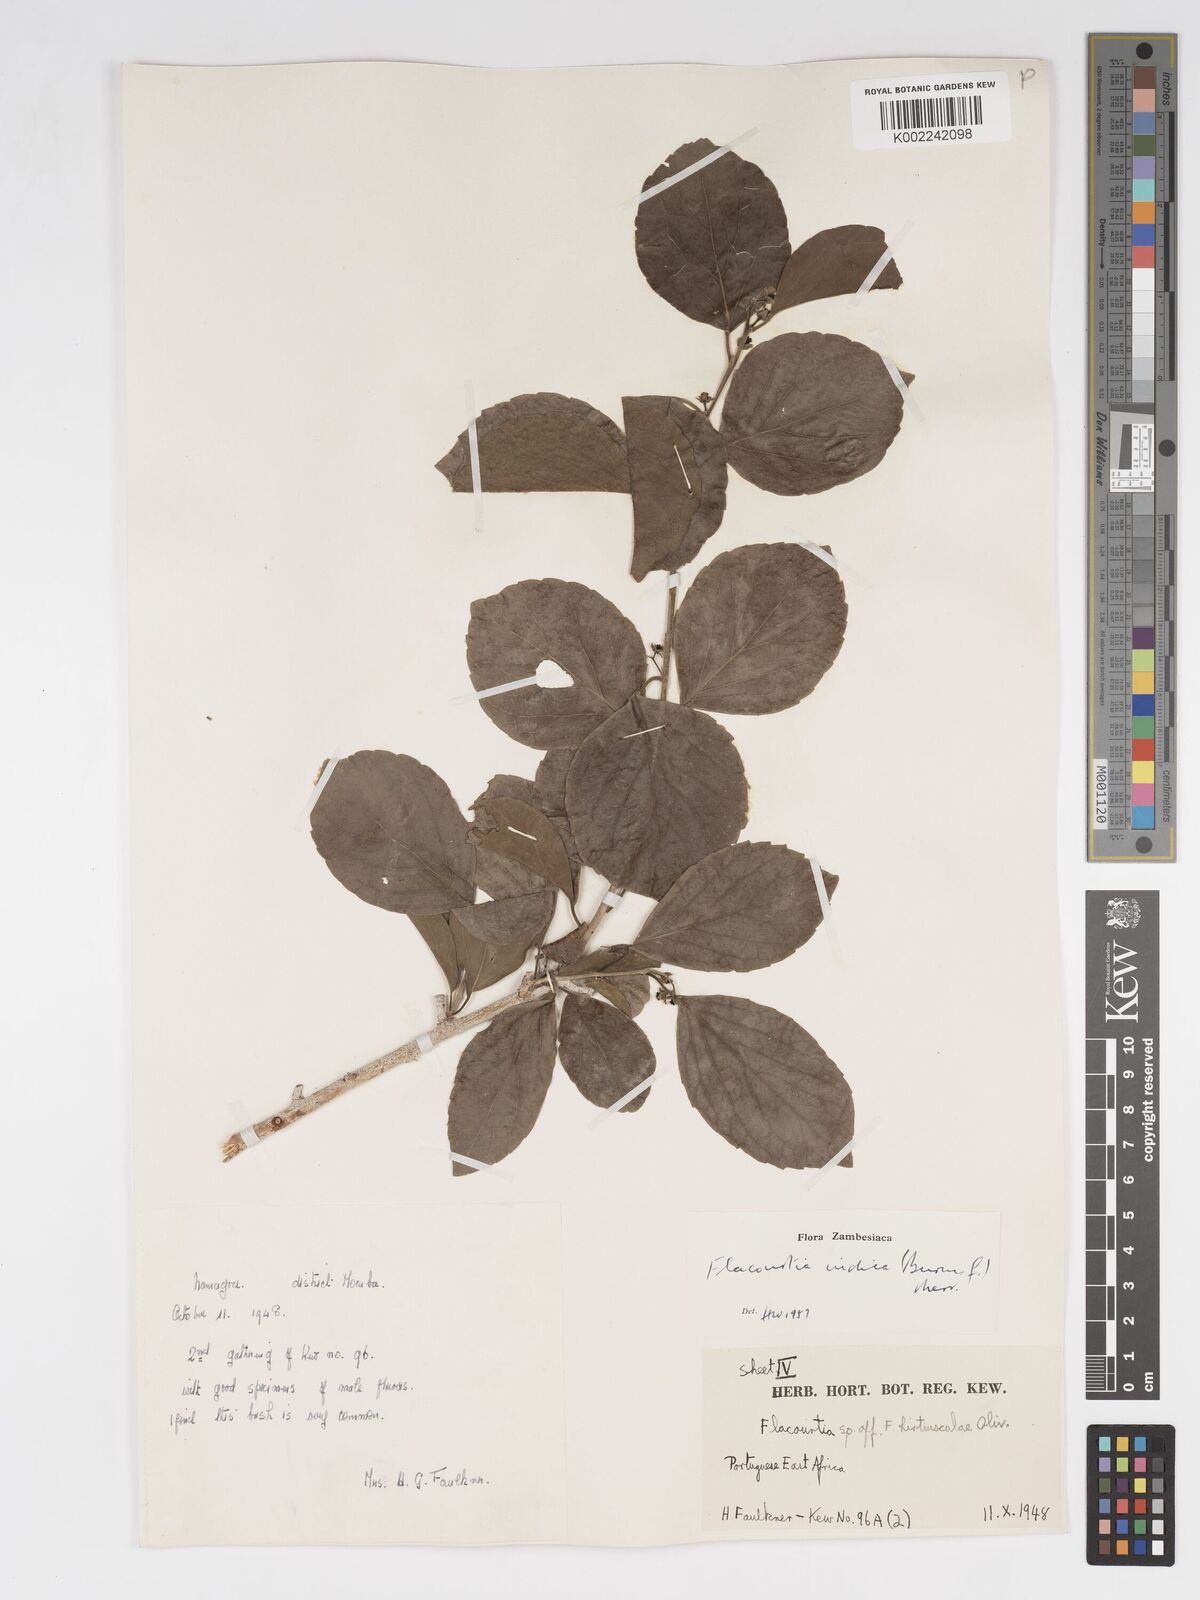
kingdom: Plantae
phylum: Tracheophyta
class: Magnoliopsida
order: Malpighiales
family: Salicaceae
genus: Flacourtia
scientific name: Flacourtia indica
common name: Governor's plum
